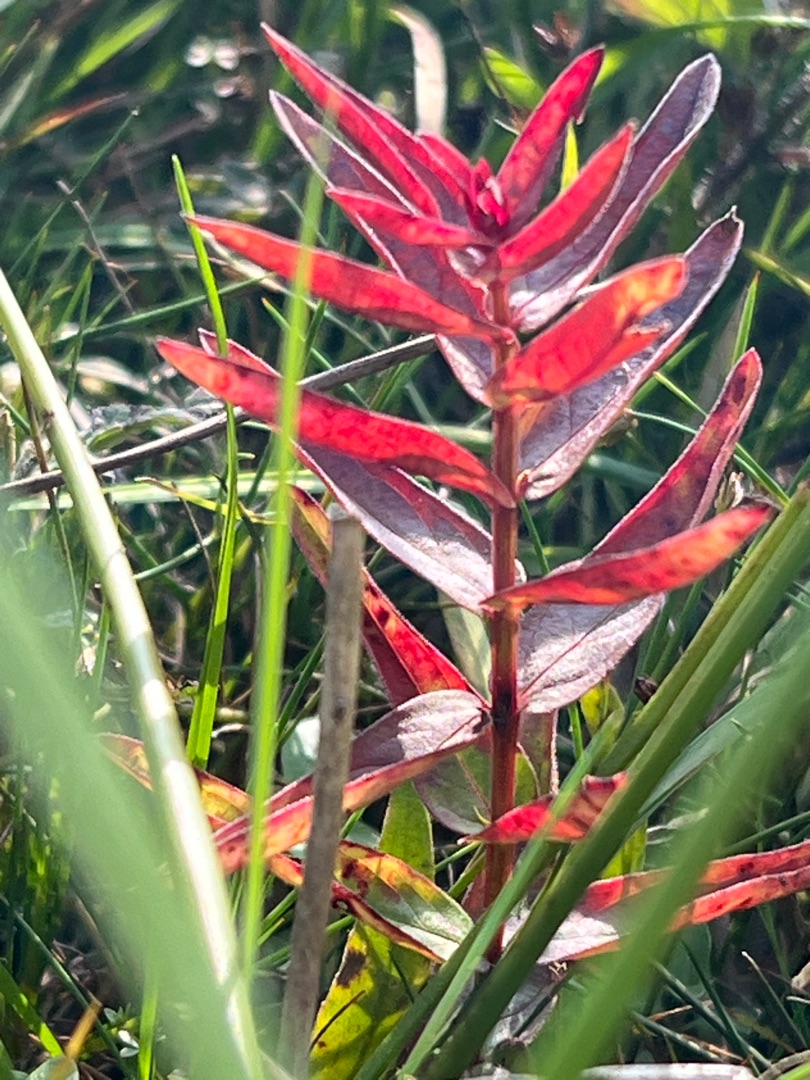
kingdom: Plantae
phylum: Tracheophyta
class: Magnoliopsida
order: Myrtales
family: Lythraceae
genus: Lythrum
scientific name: Lythrum salicaria
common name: Kattehale
